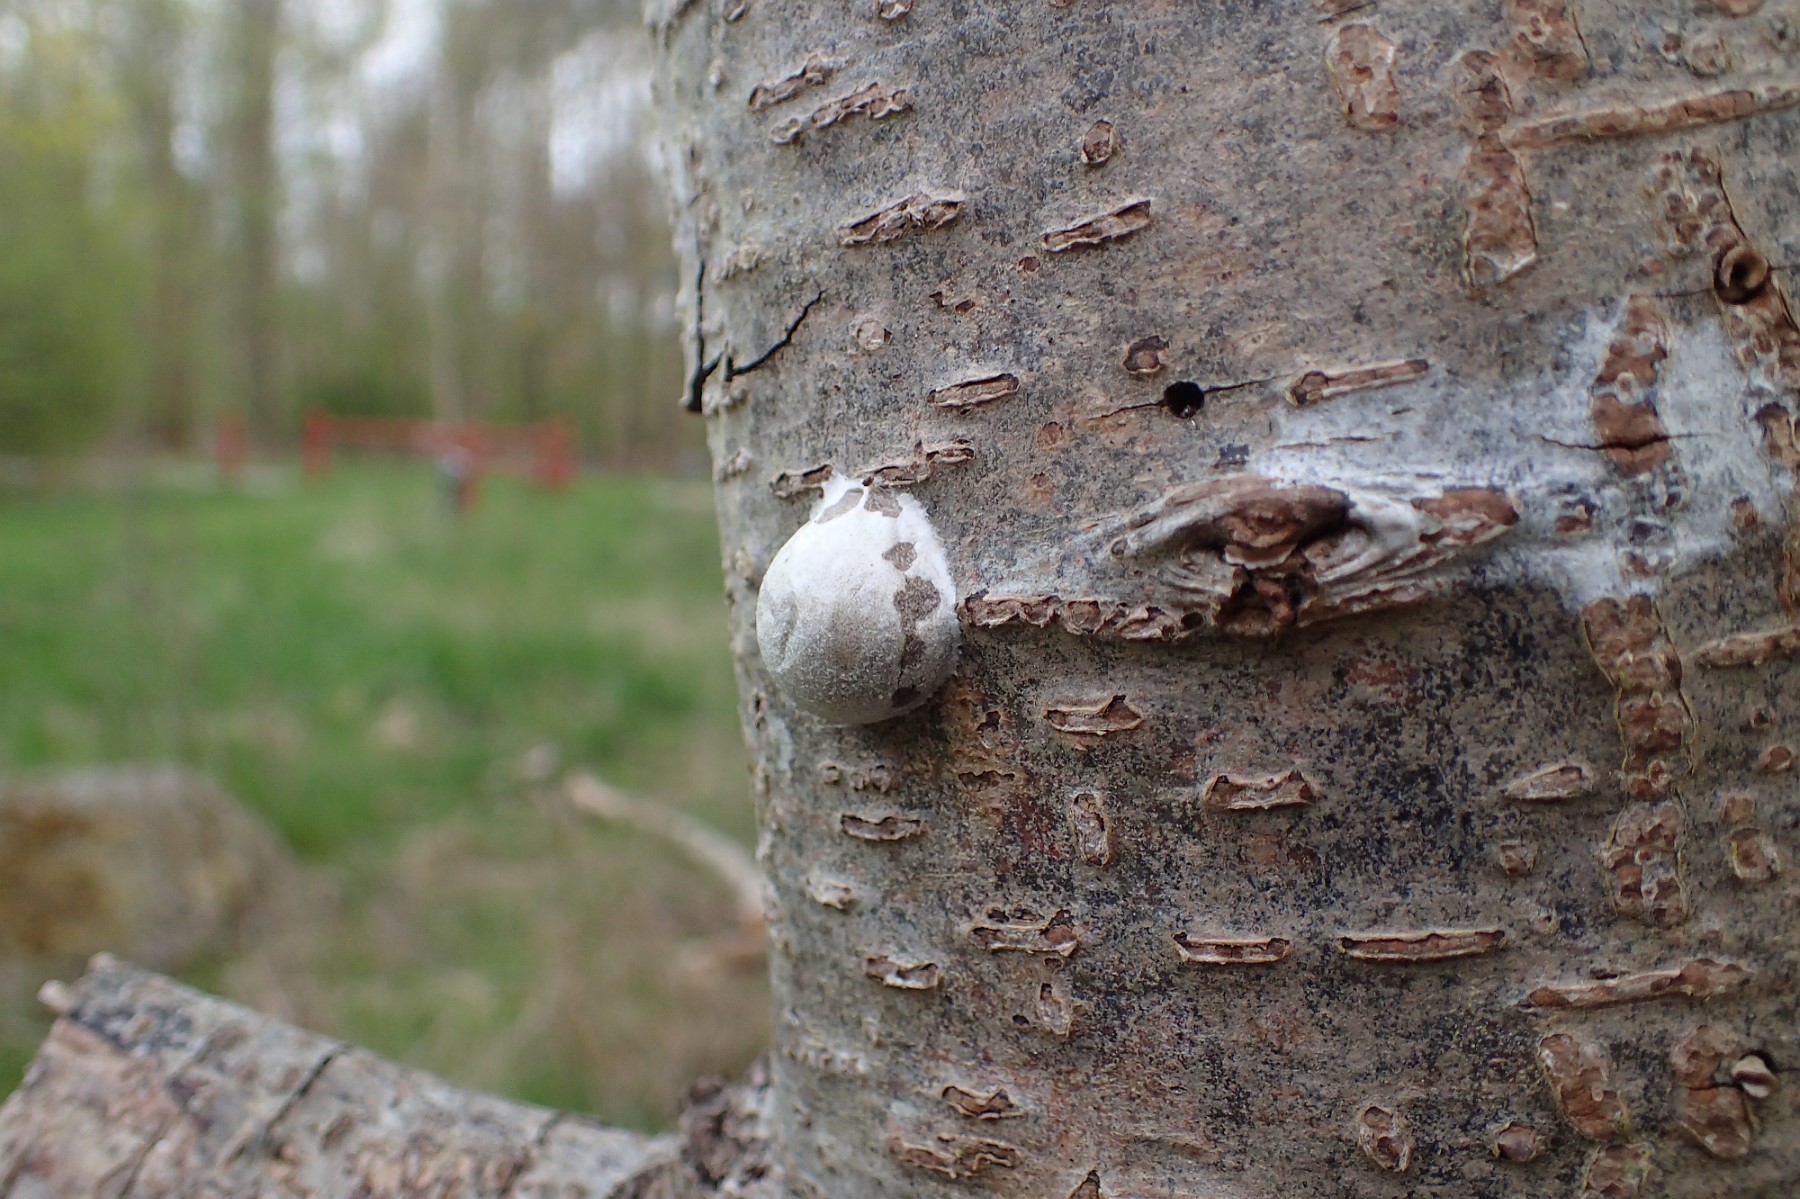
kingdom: Protozoa
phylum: Mycetozoa
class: Myxomycetes
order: Cribrariales
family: Tubiferaceae
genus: Reticularia
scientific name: Reticularia lycoperdon
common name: skinnende støvpude
